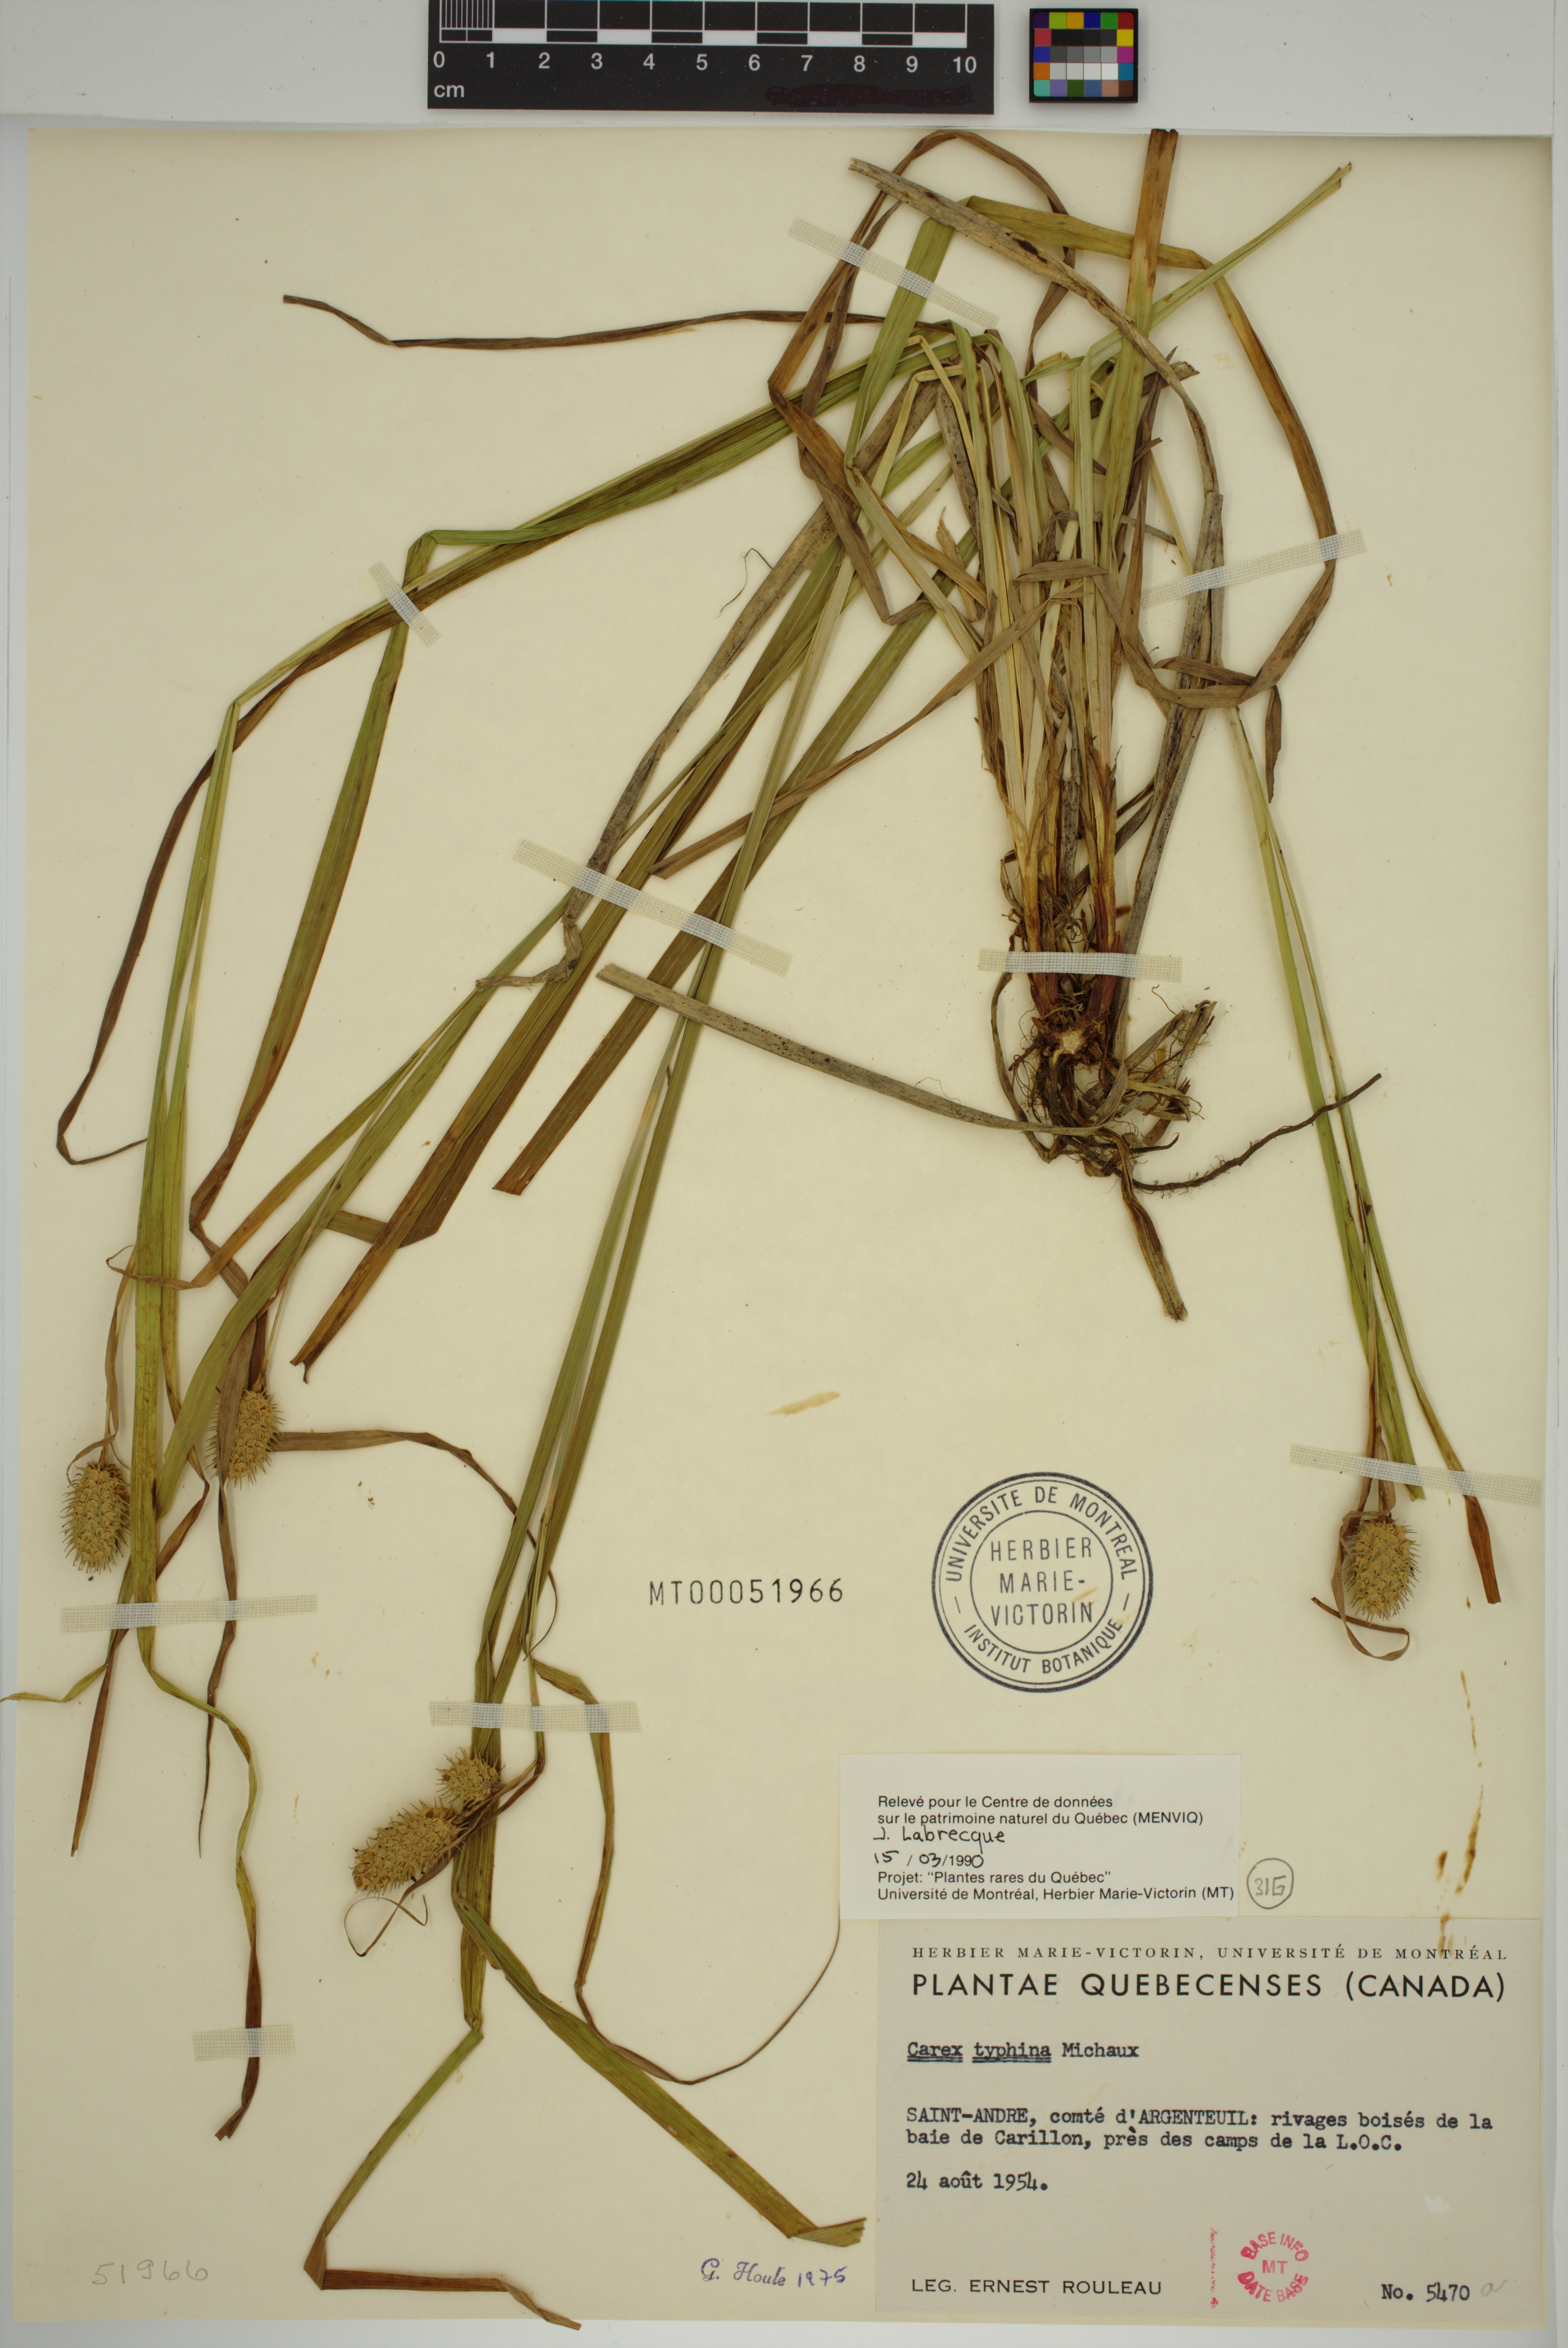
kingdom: Plantae
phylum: Tracheophyta
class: Liliopsida
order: Poales
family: Cyperaceae
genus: Carex
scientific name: Carex typhina
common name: Cattail sedge
